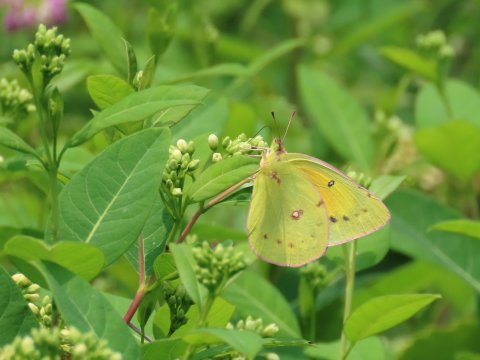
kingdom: Animalia
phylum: Arthropoda
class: Insecta
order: Lepidoptera
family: Pieridae
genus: Colias
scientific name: Colias eurytheme
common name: Orange Sulphur
